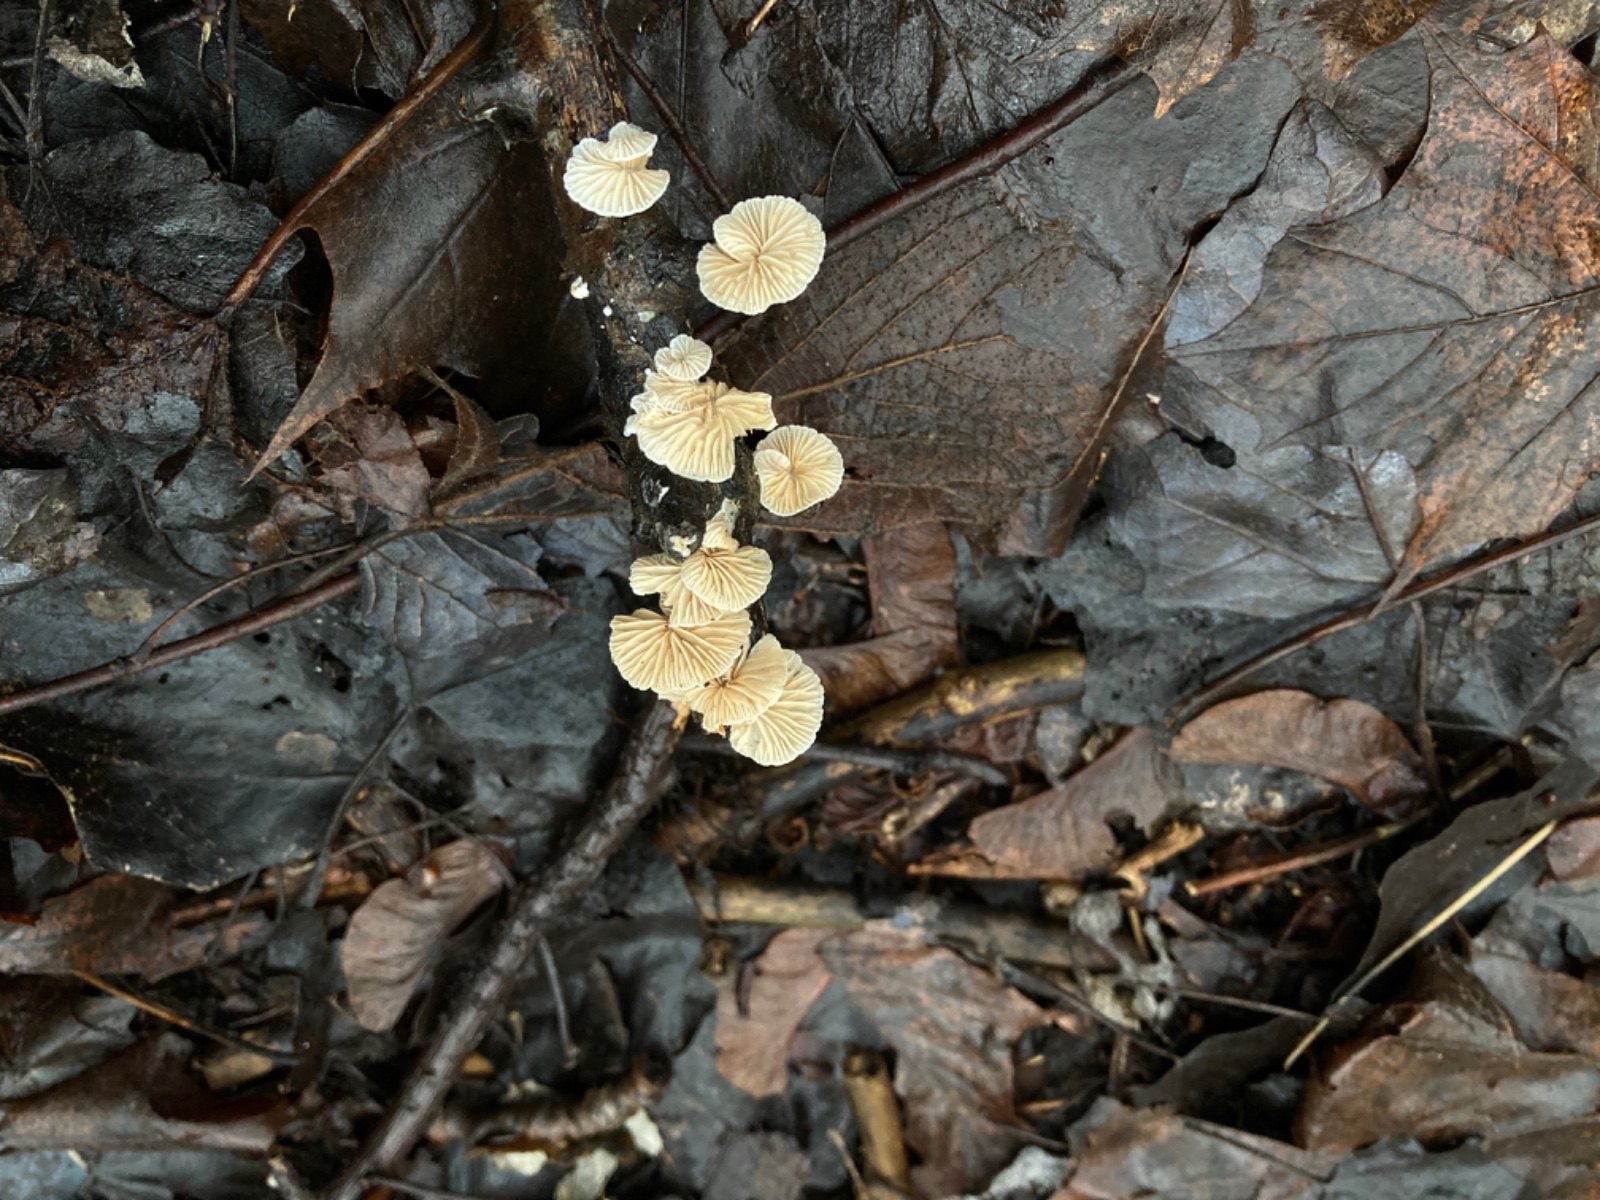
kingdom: Fungi
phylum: Basidiomycota
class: Agaricomycetes
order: Agaricales
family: Crepidotaceae
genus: Crepidotus
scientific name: Crepidotus cesatii
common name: almindelig muslingesvamp
